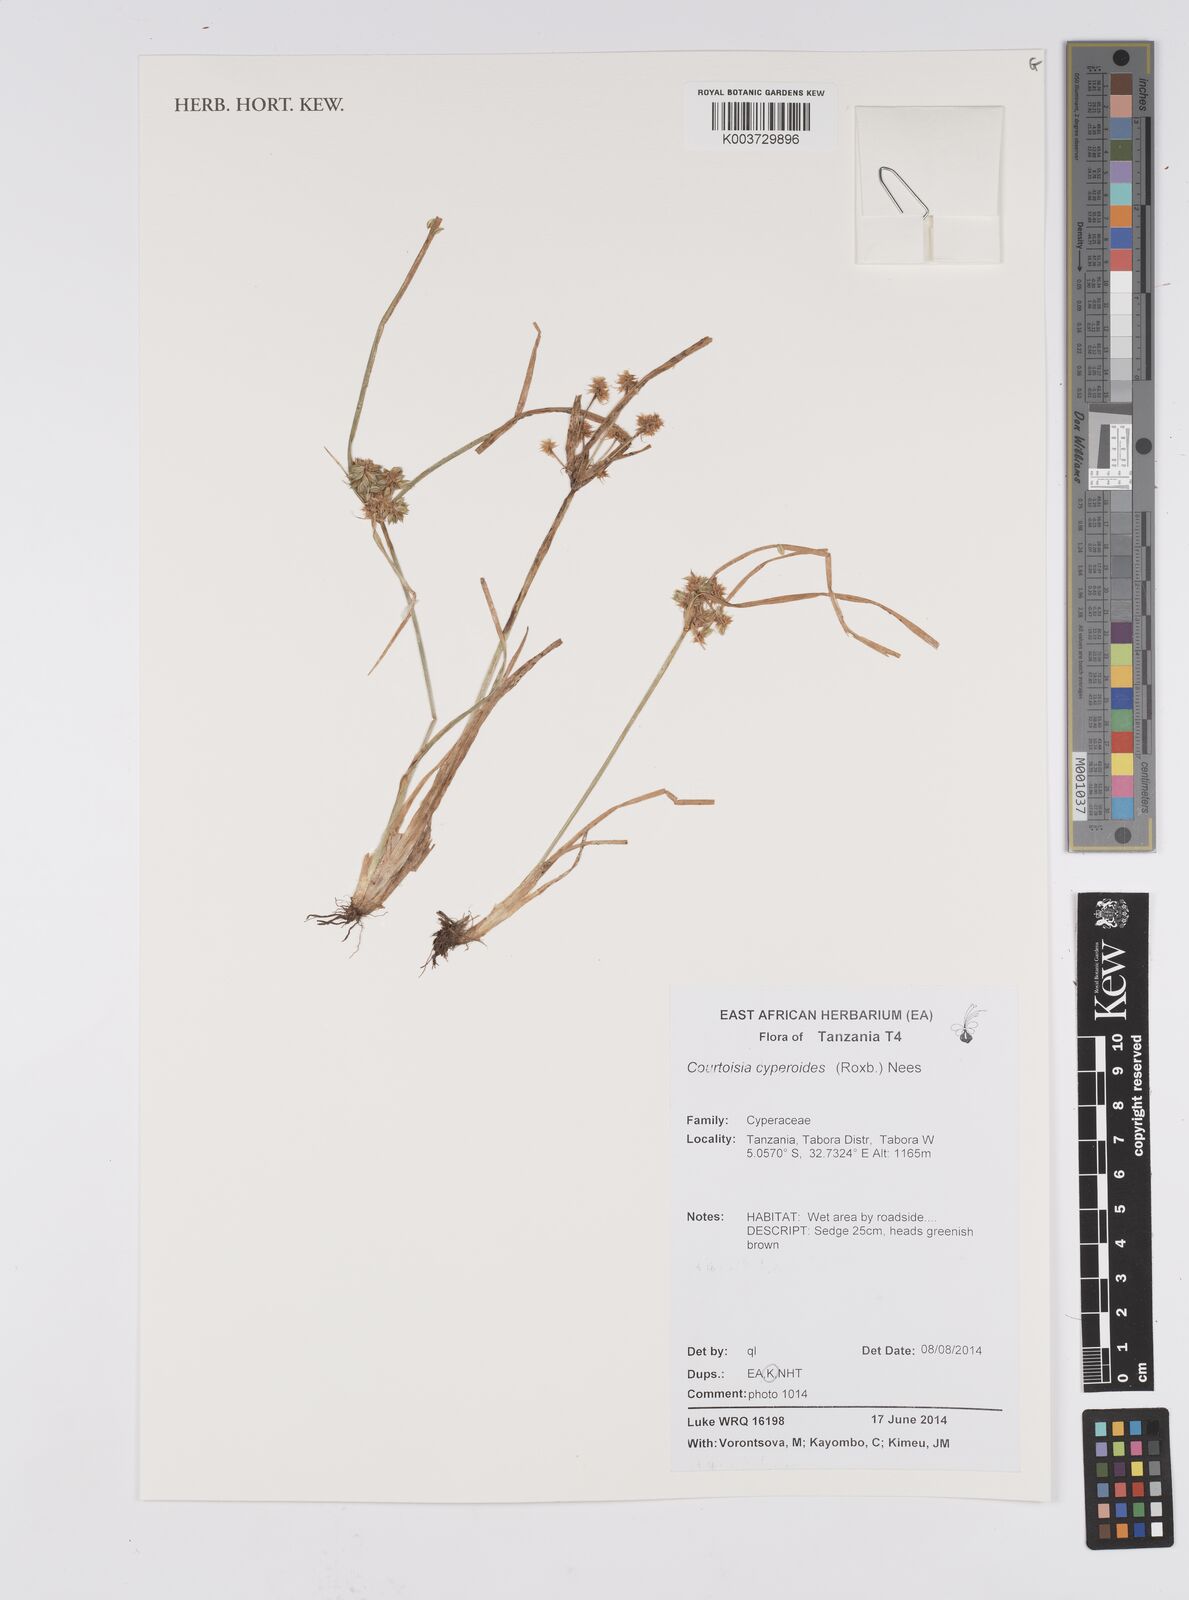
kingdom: Plantae
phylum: Tracheophyta
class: Liliopsida
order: Poales
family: Cyperaceae
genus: Cyperus
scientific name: Cyperus cyperoides
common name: Pacific island flat sedge
